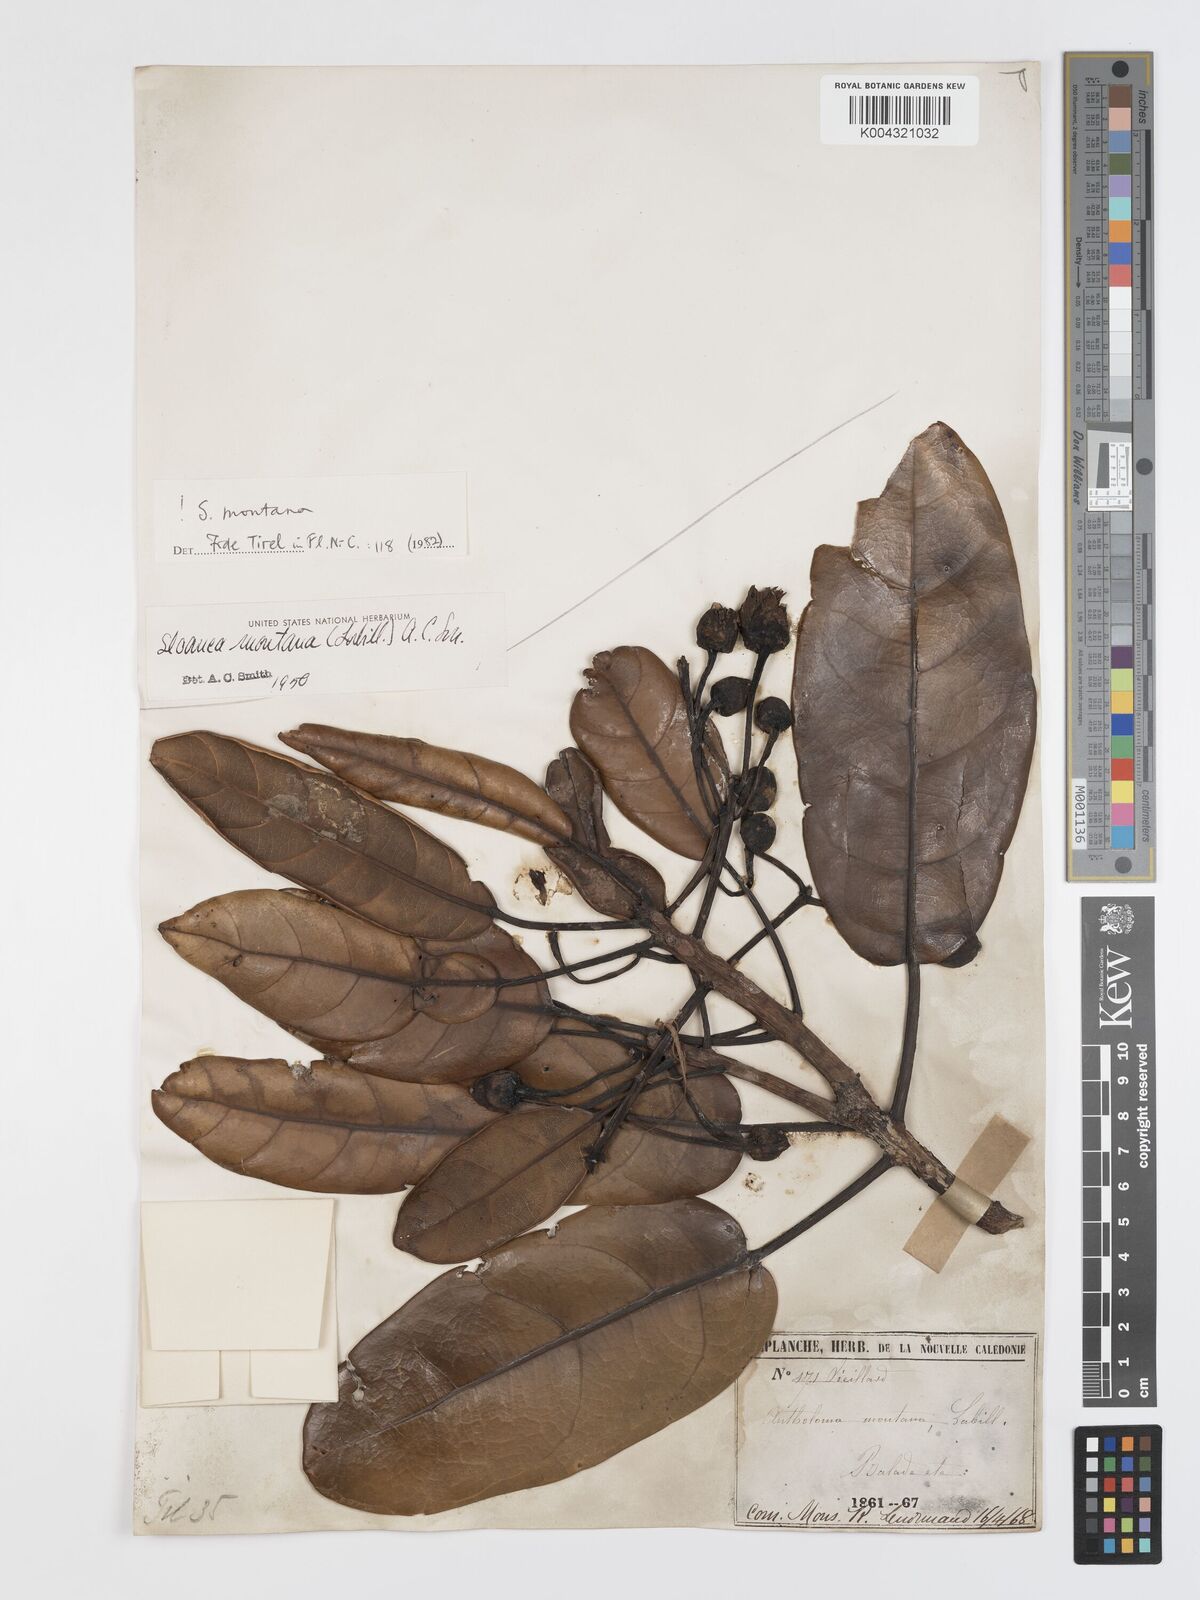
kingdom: Plantae
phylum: Tracheophyta
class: Magnoliopsida
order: Oxalidales
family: Elaeocarpaceae
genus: Sloanea
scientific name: Sloanea montana
